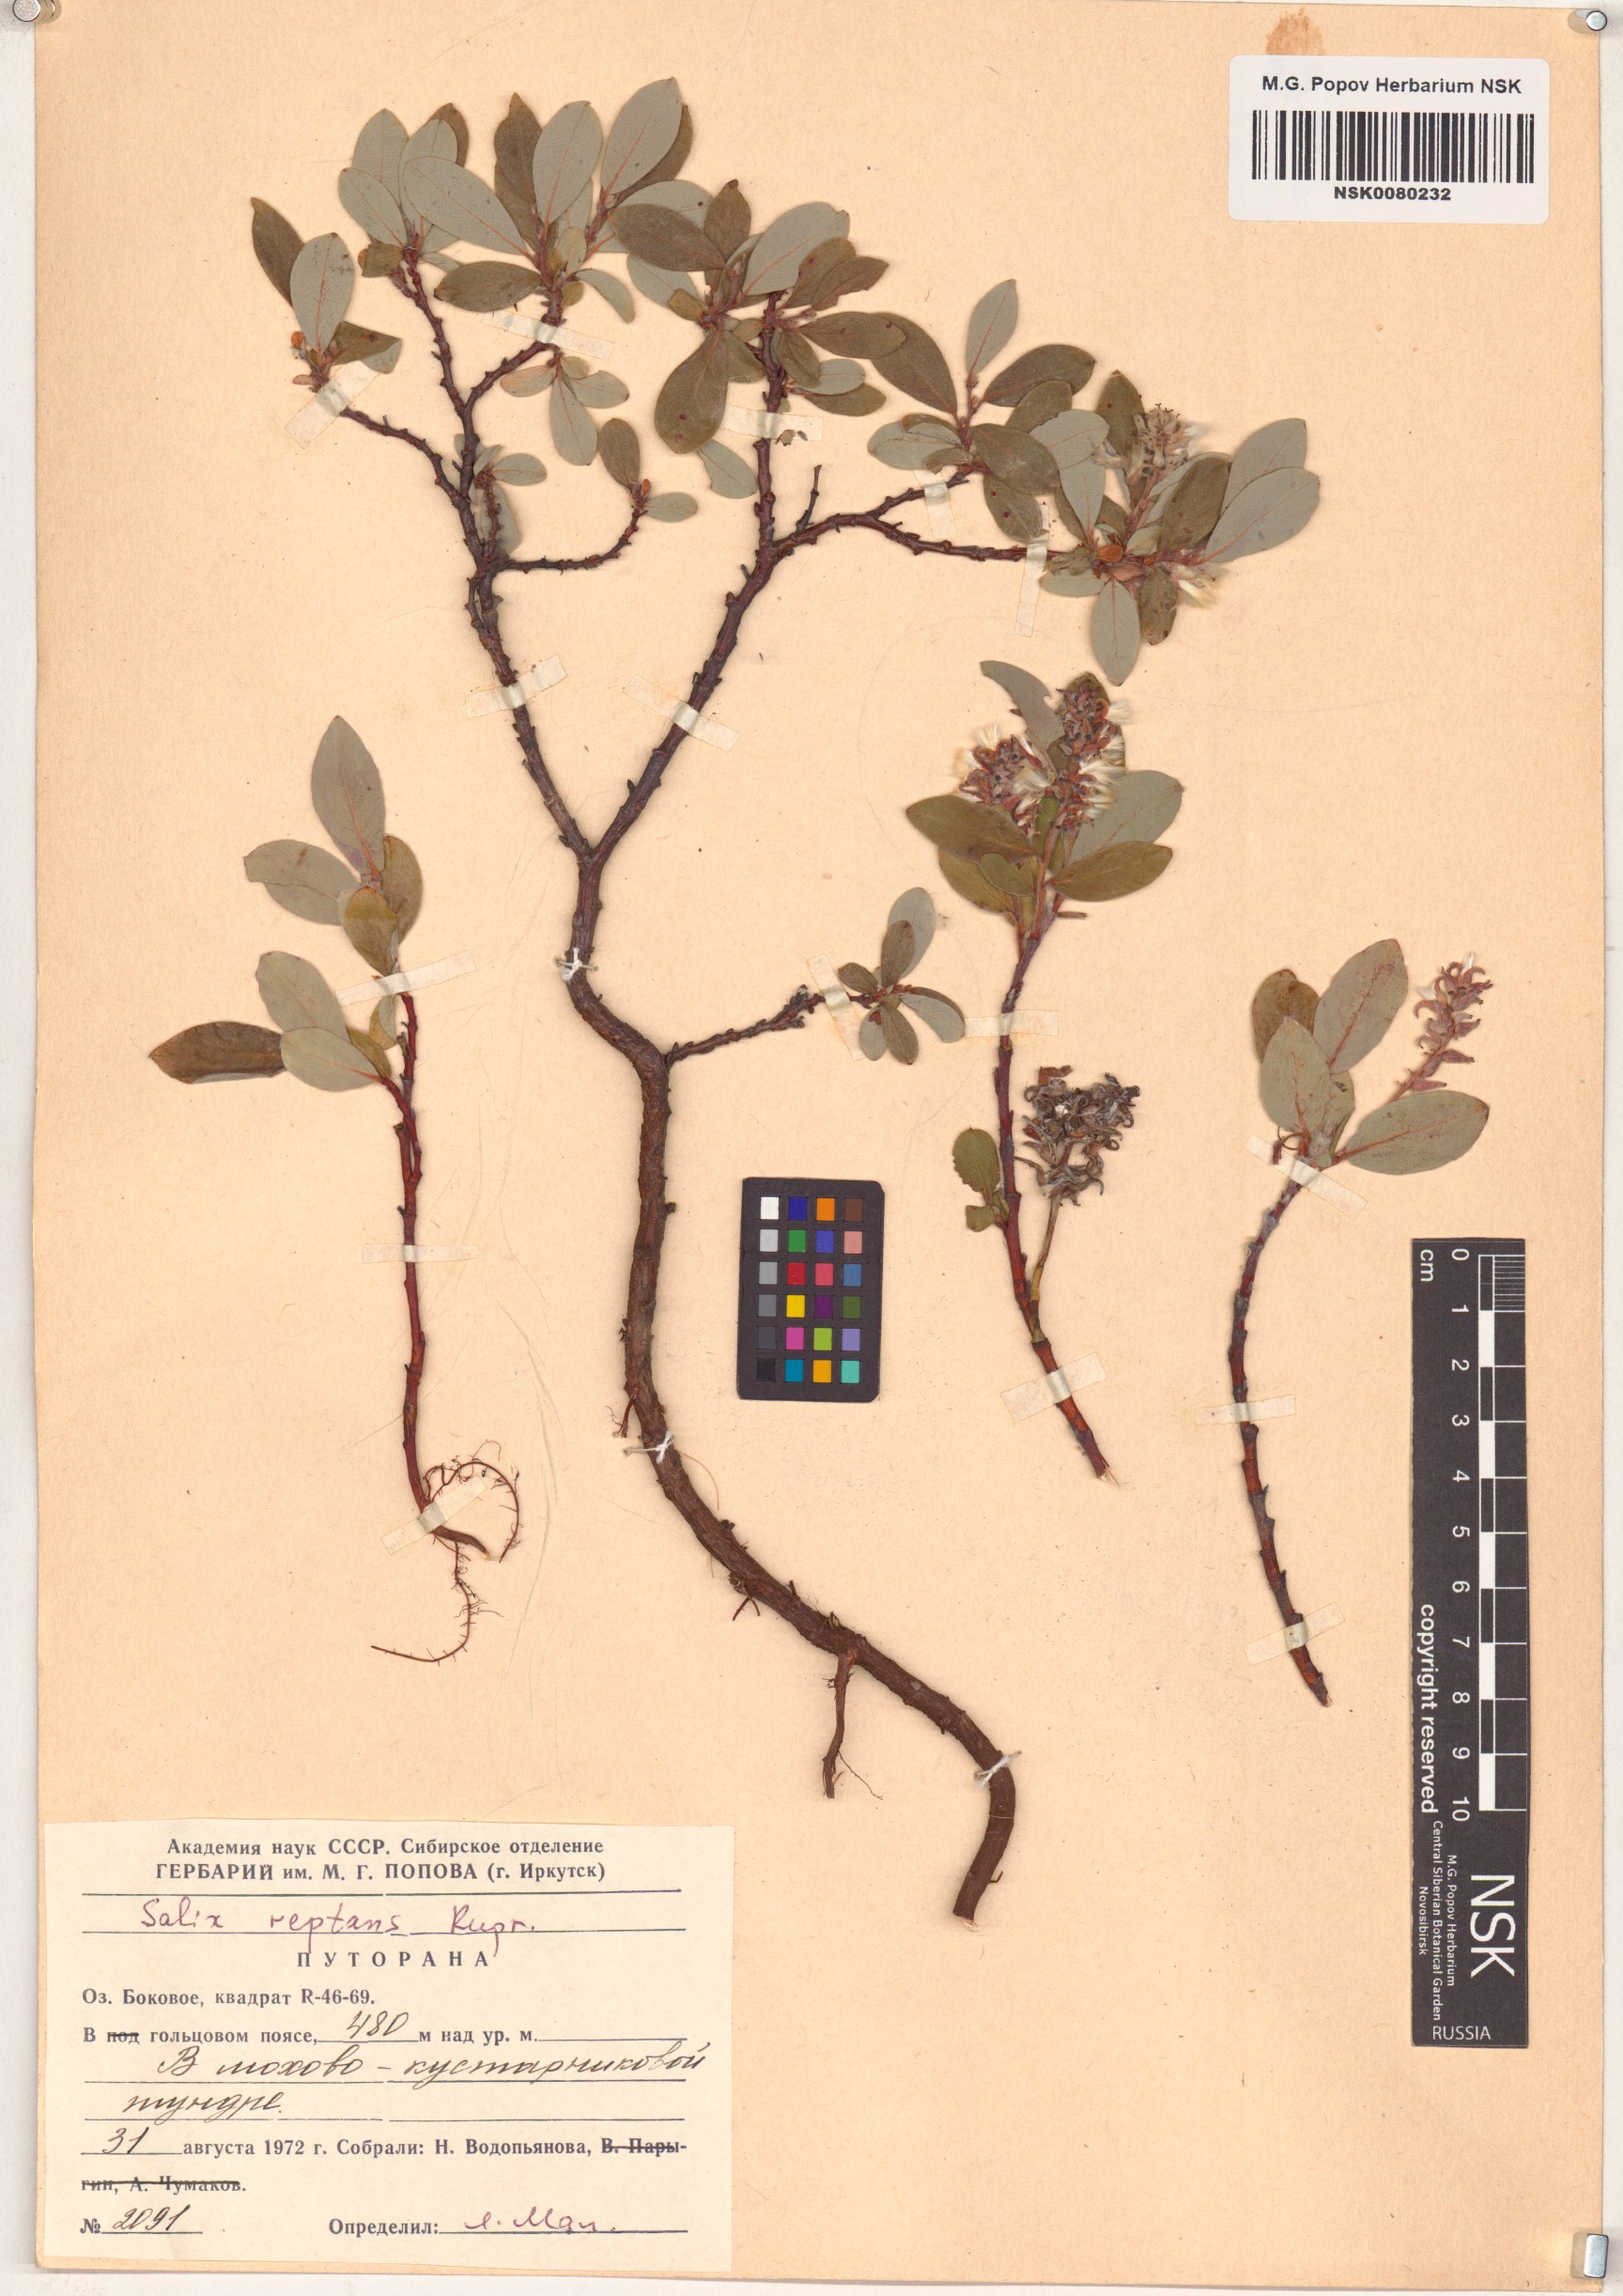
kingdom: Plantae
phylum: Tracheophyta
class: Magnoliopsida
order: Malpighiales
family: Salicaceae
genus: Salix
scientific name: Salix reptans
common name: Arctic creeping willow
